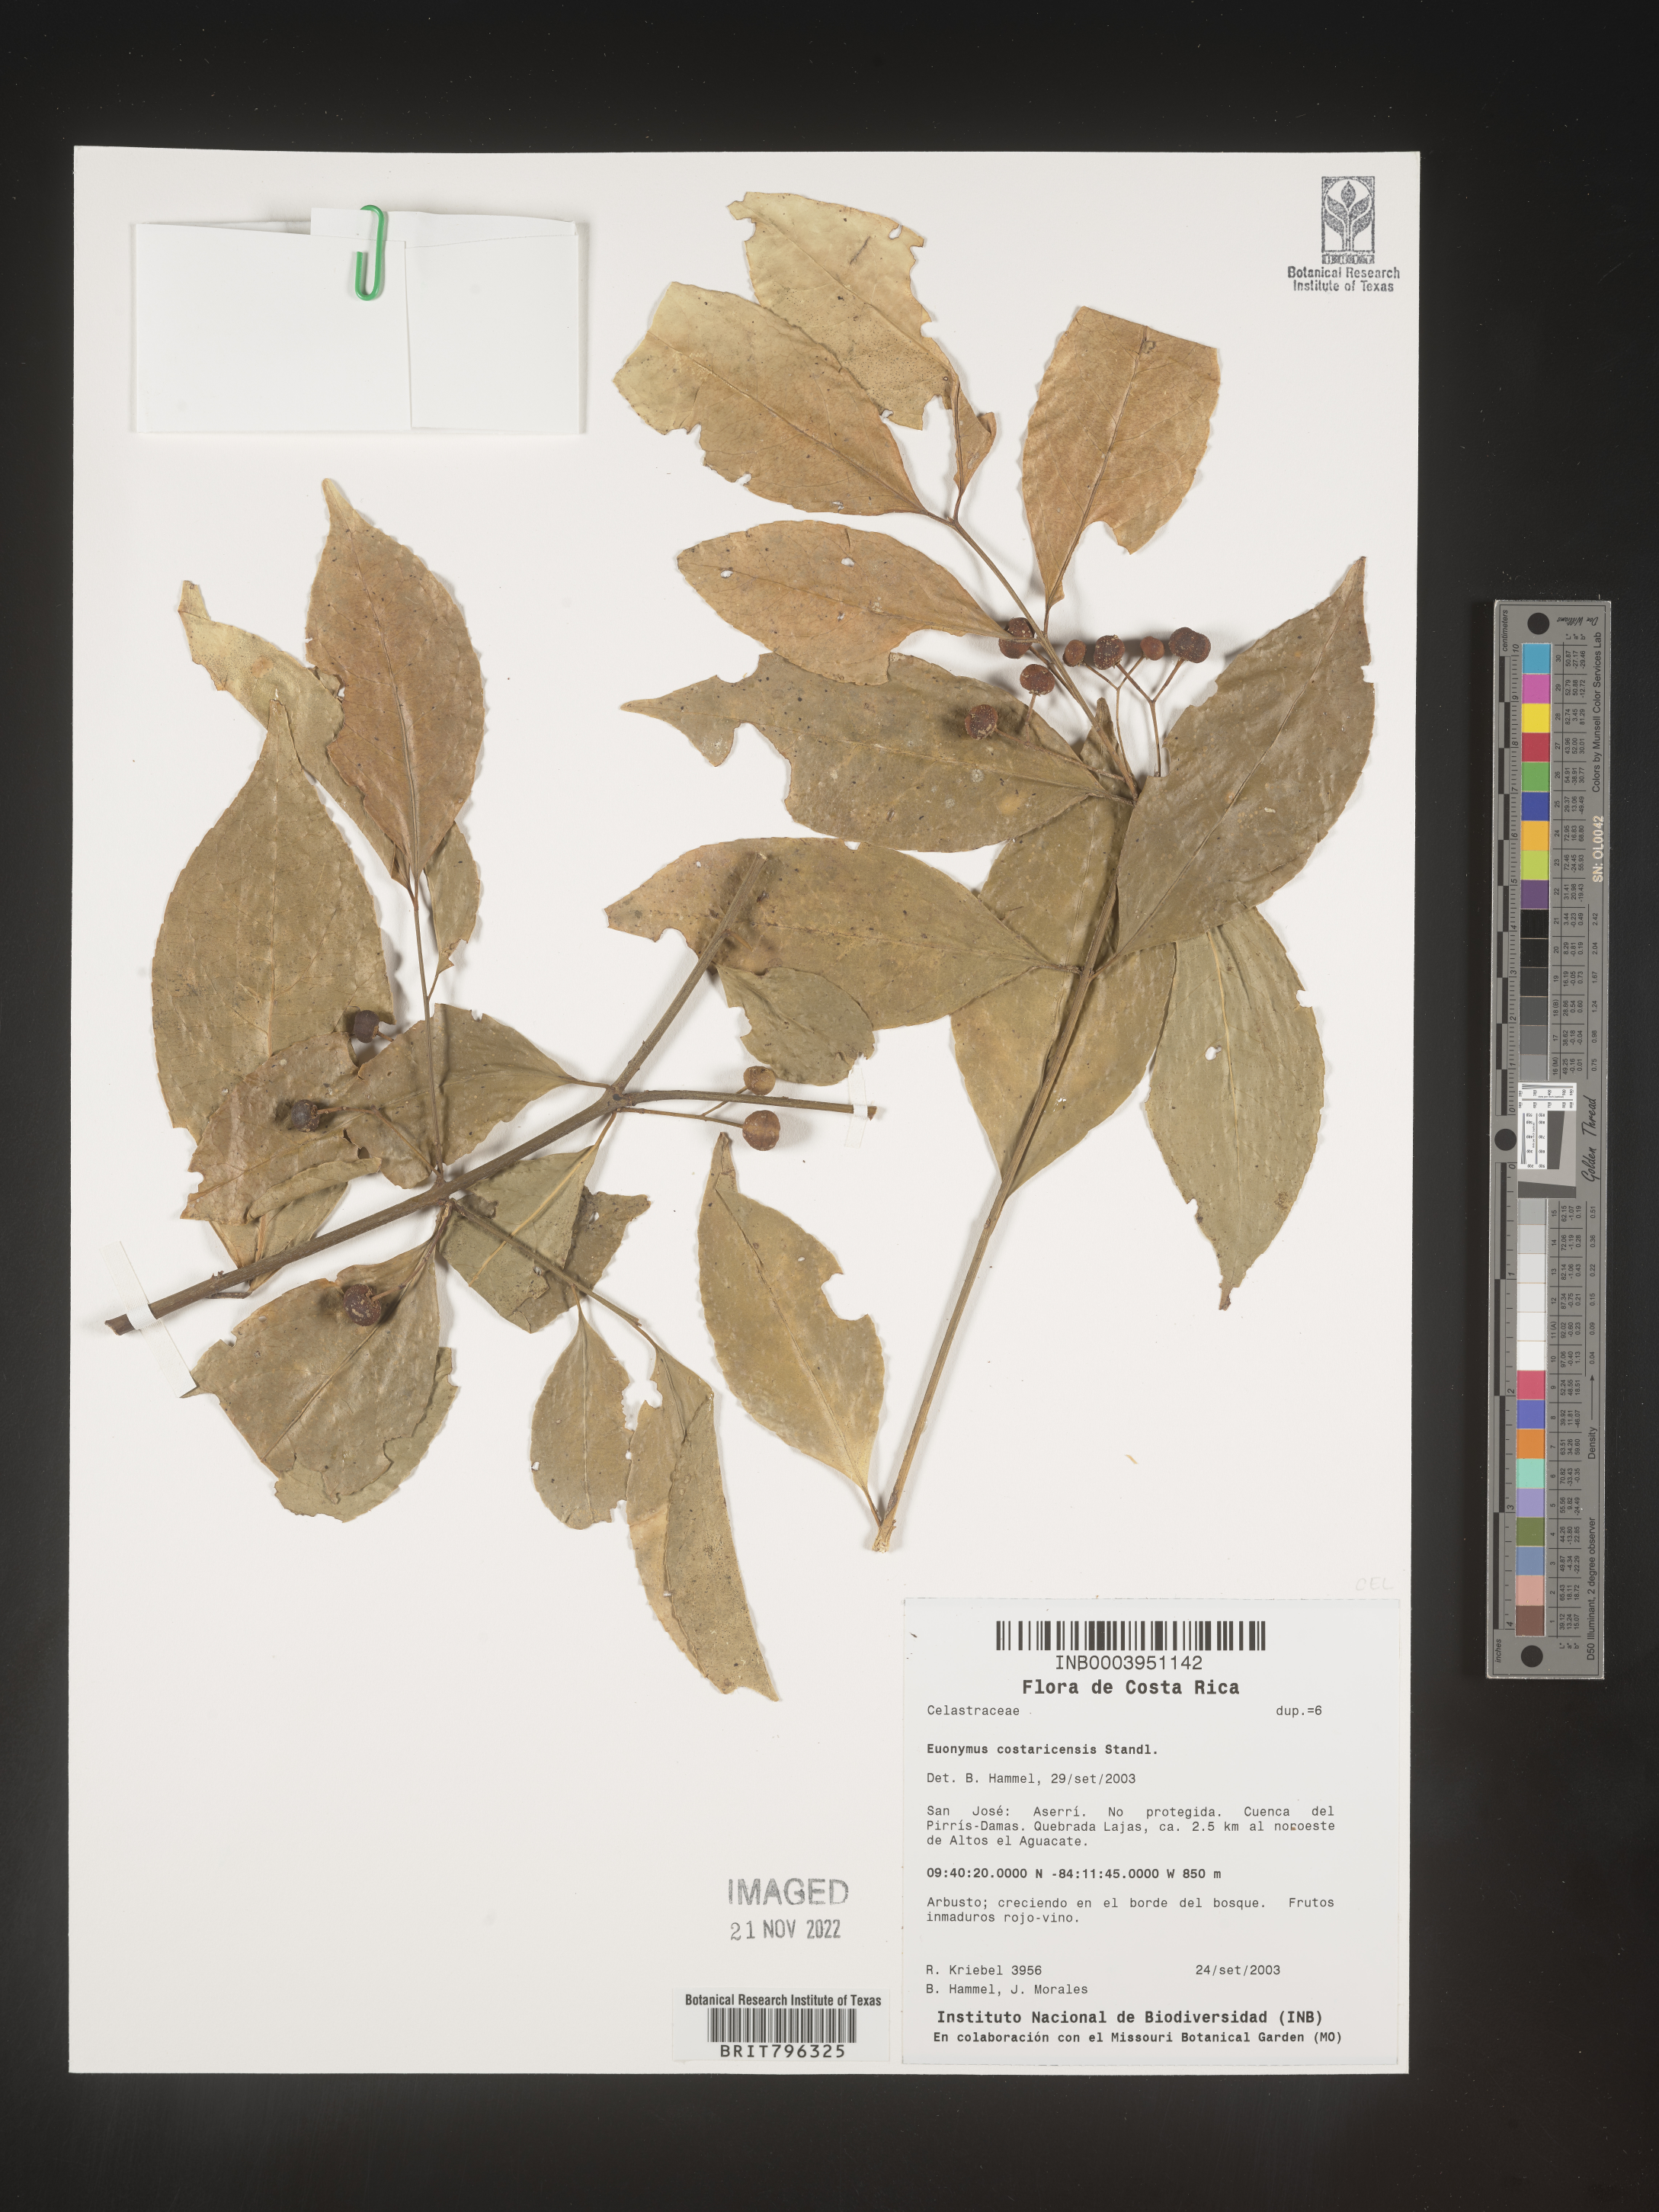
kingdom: Plantae
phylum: Tracheophyta
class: Magnoliopsida
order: Celastrales
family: Celastraceae
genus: Euonymus
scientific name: Euonymus costaricensis
